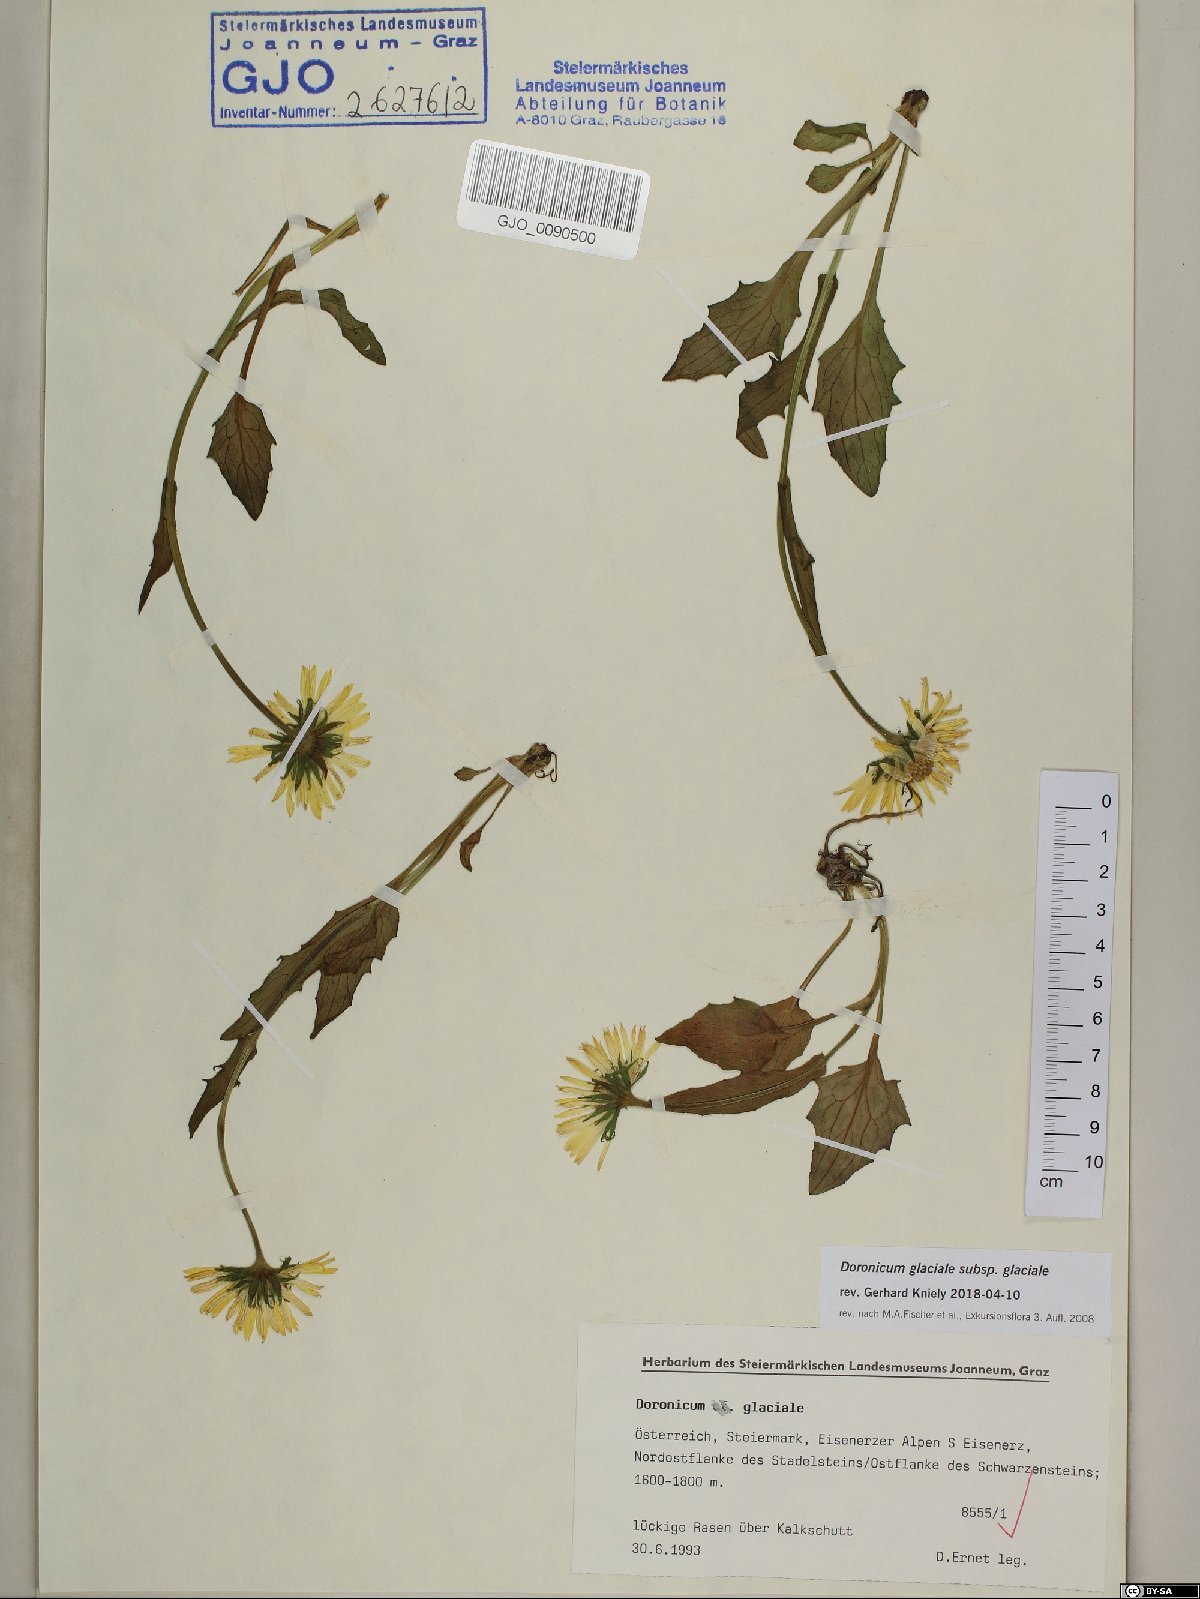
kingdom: Plantae
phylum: Tracheophyta
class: Magnoliopsida
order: Asterales
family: Asteraceae
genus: Doronicum
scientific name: Doronicum glaciale
